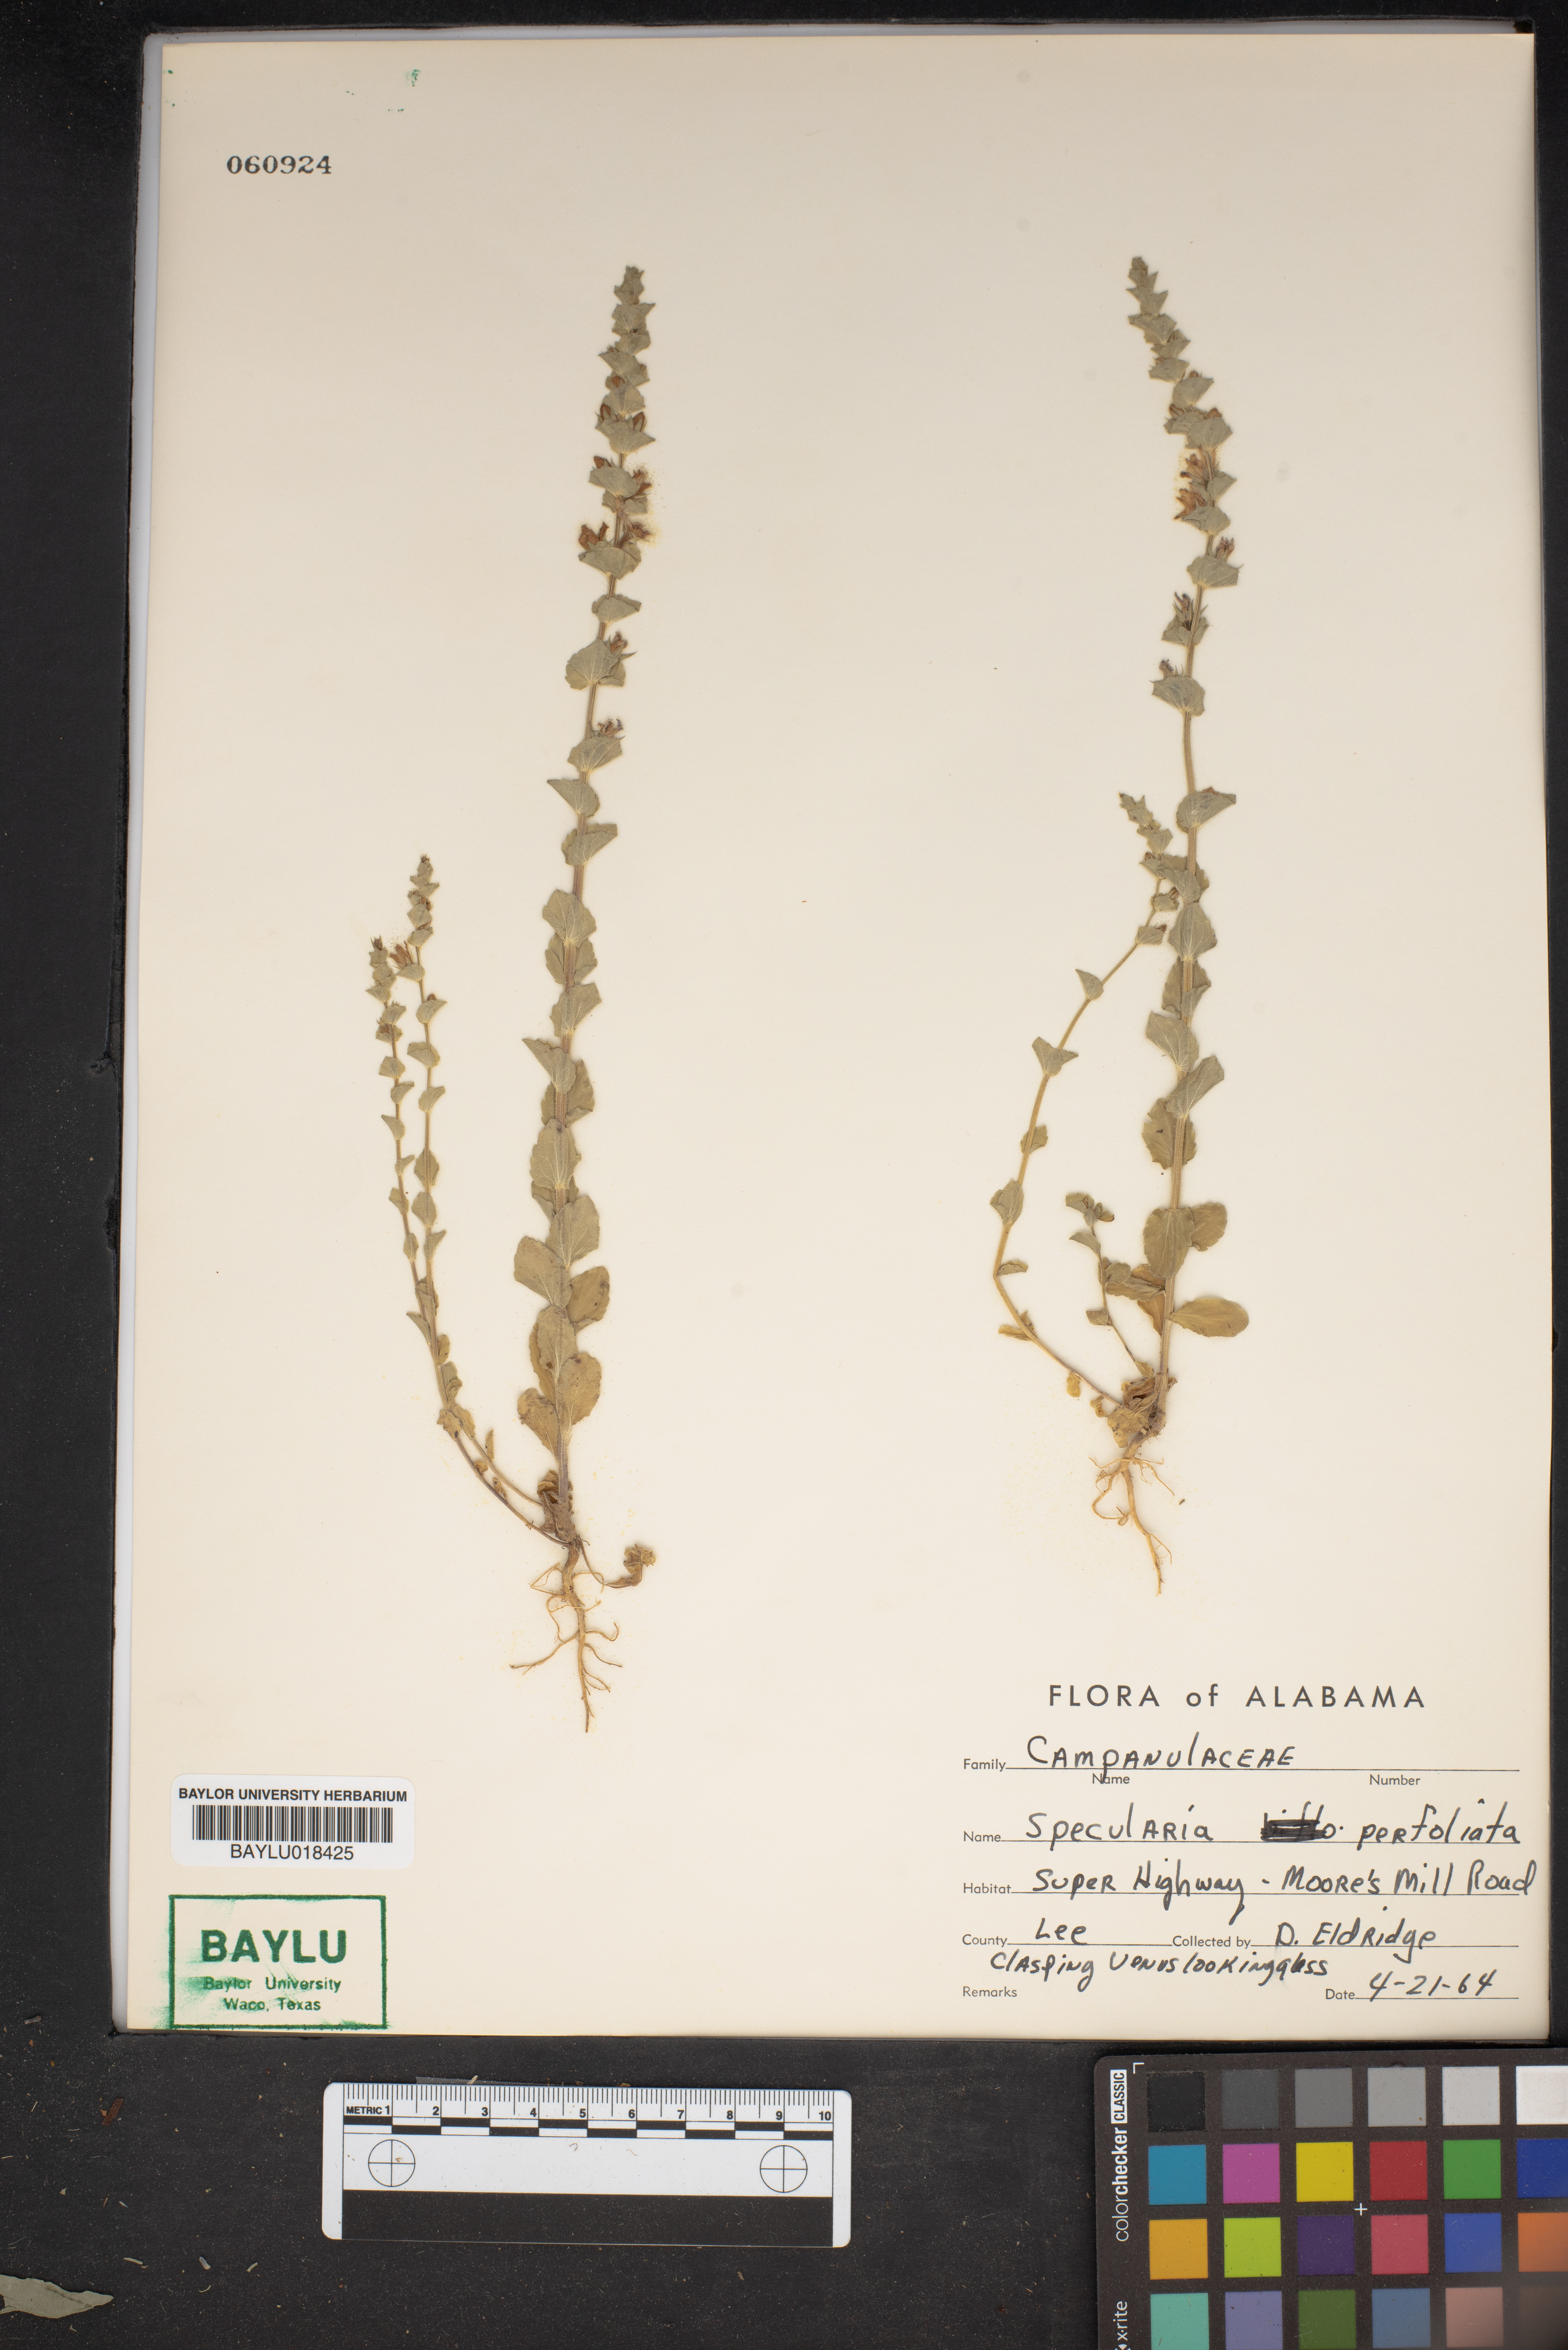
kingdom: Plantae
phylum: Tracheophyta
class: Magnoliopsida
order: Asterales
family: Campanulaceae
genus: Triodanis
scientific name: Triodanis perfoliata
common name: Clasping venus' looking-glass
